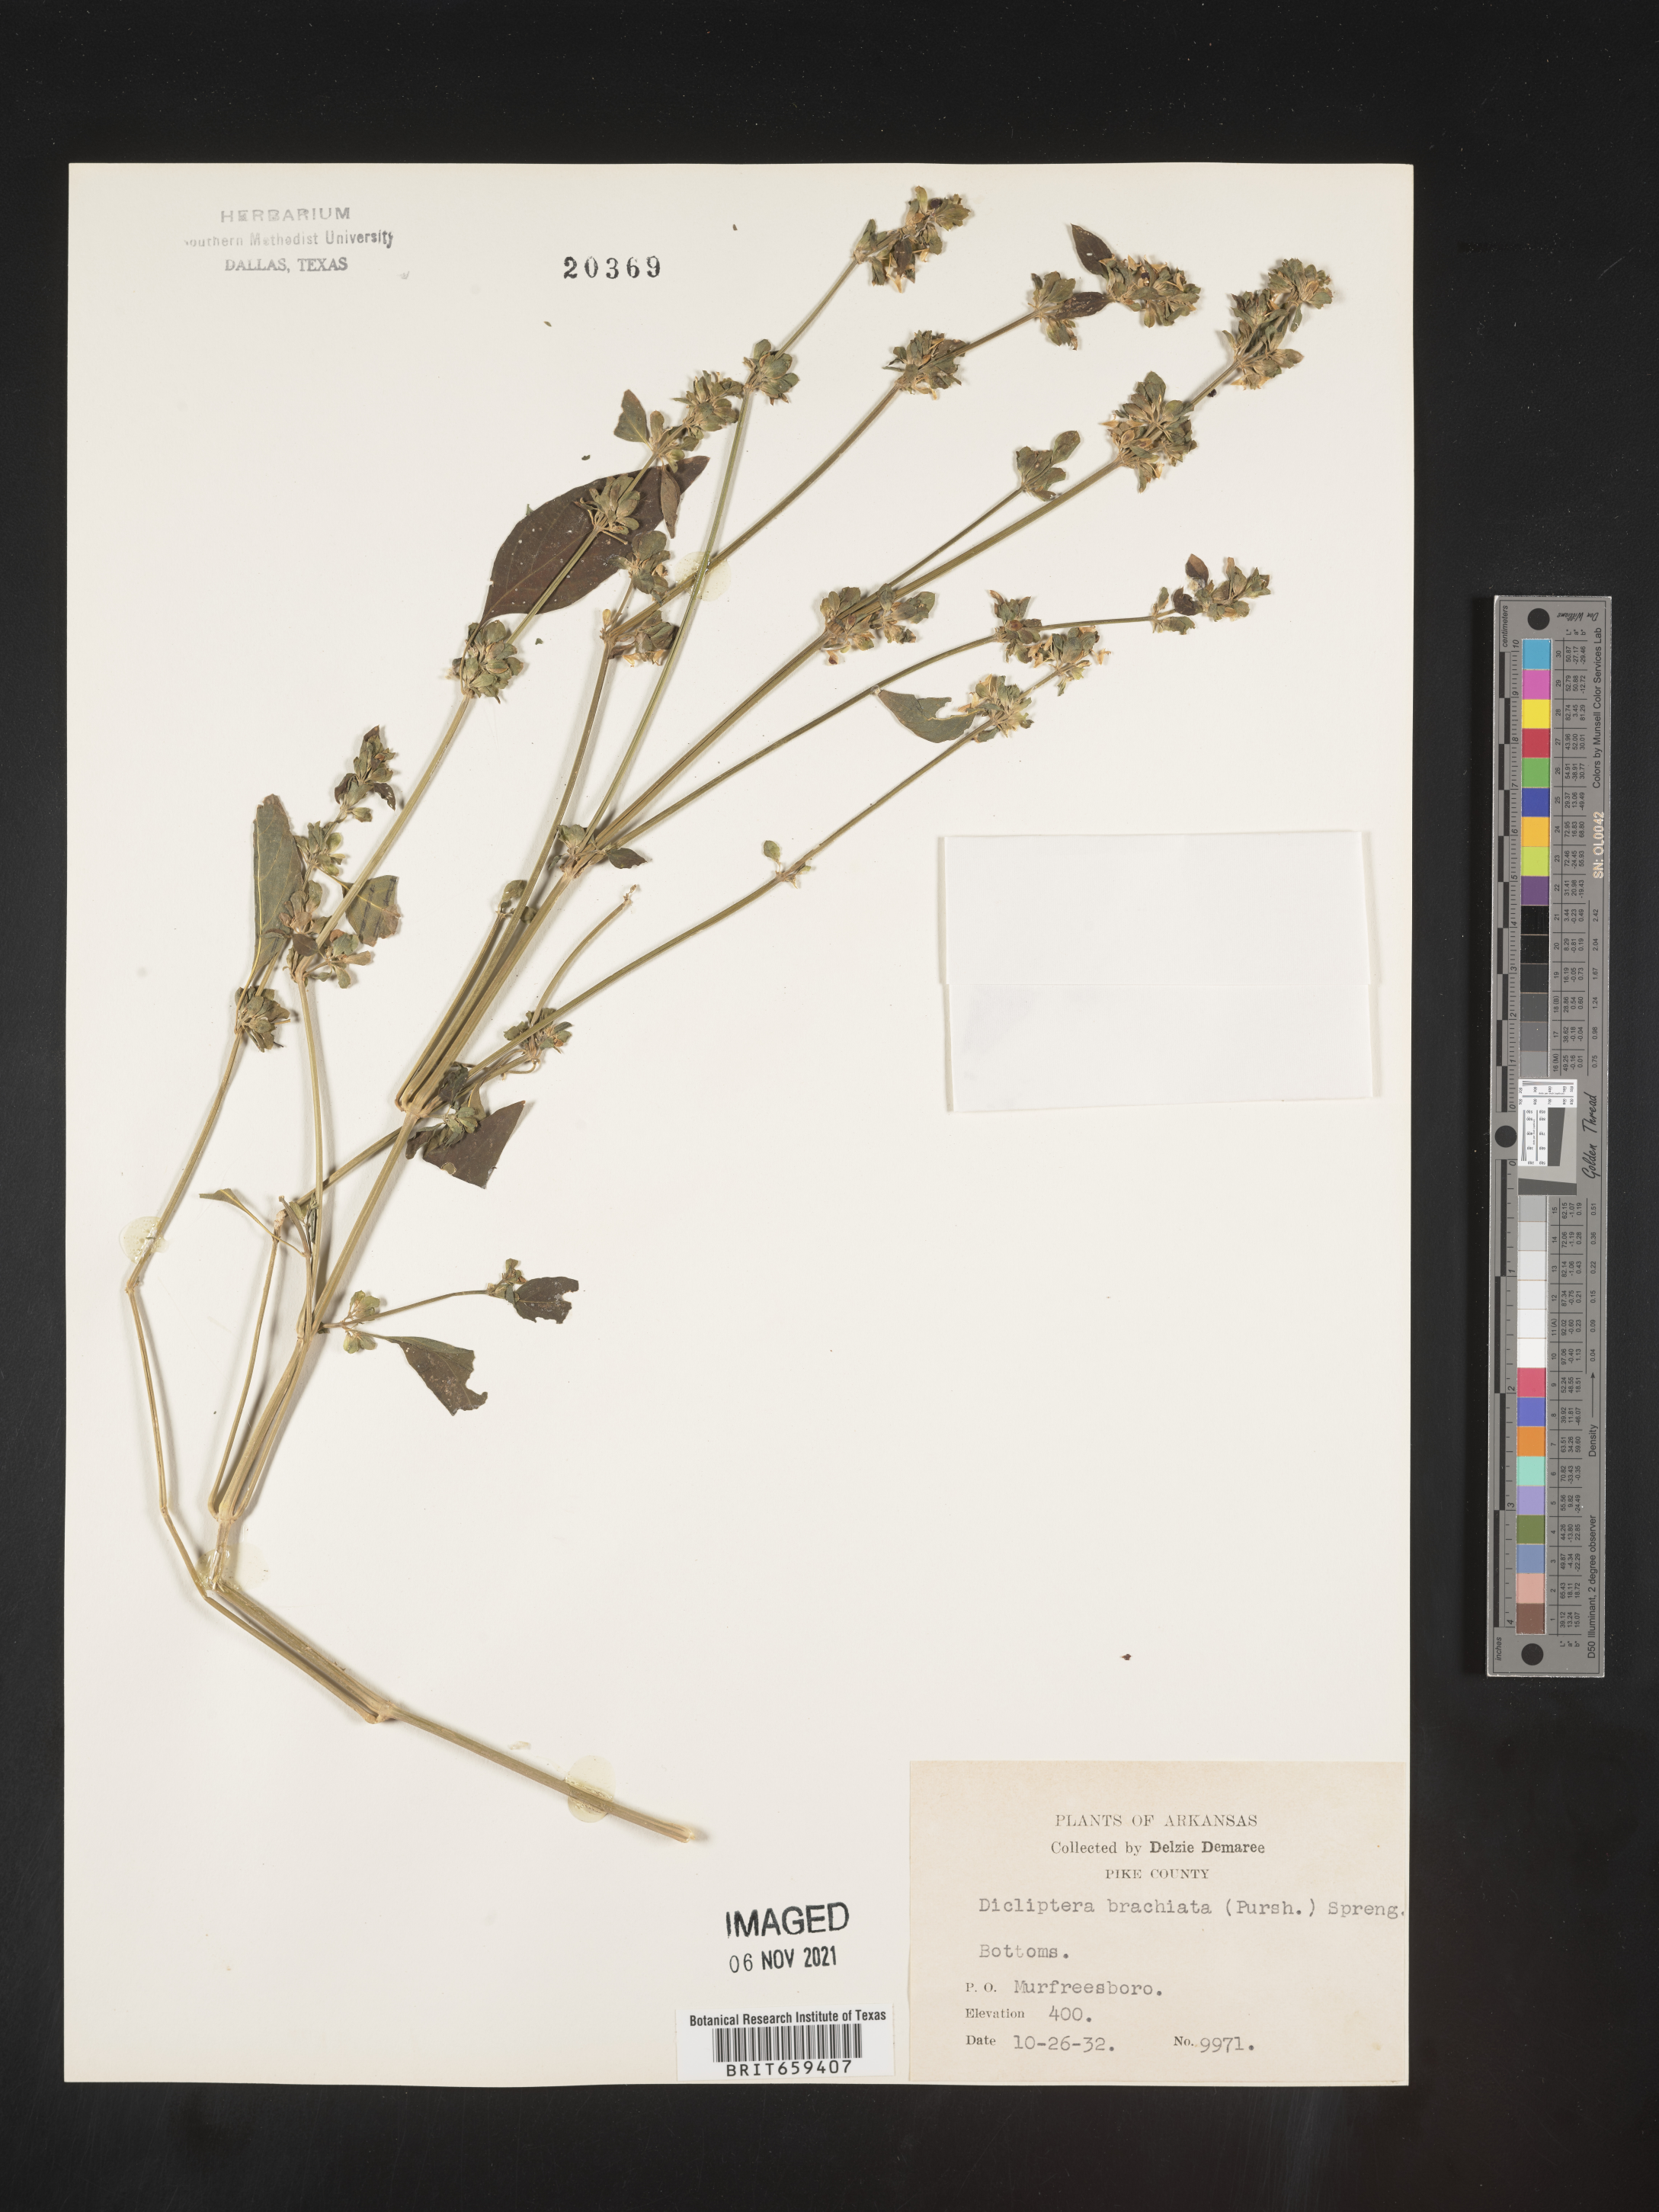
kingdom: Plantae
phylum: Tracheophyta
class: Magnoliopsida
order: Lamiales
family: Acanthaceae
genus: Dicliptera
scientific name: Dicliptera brachiata
